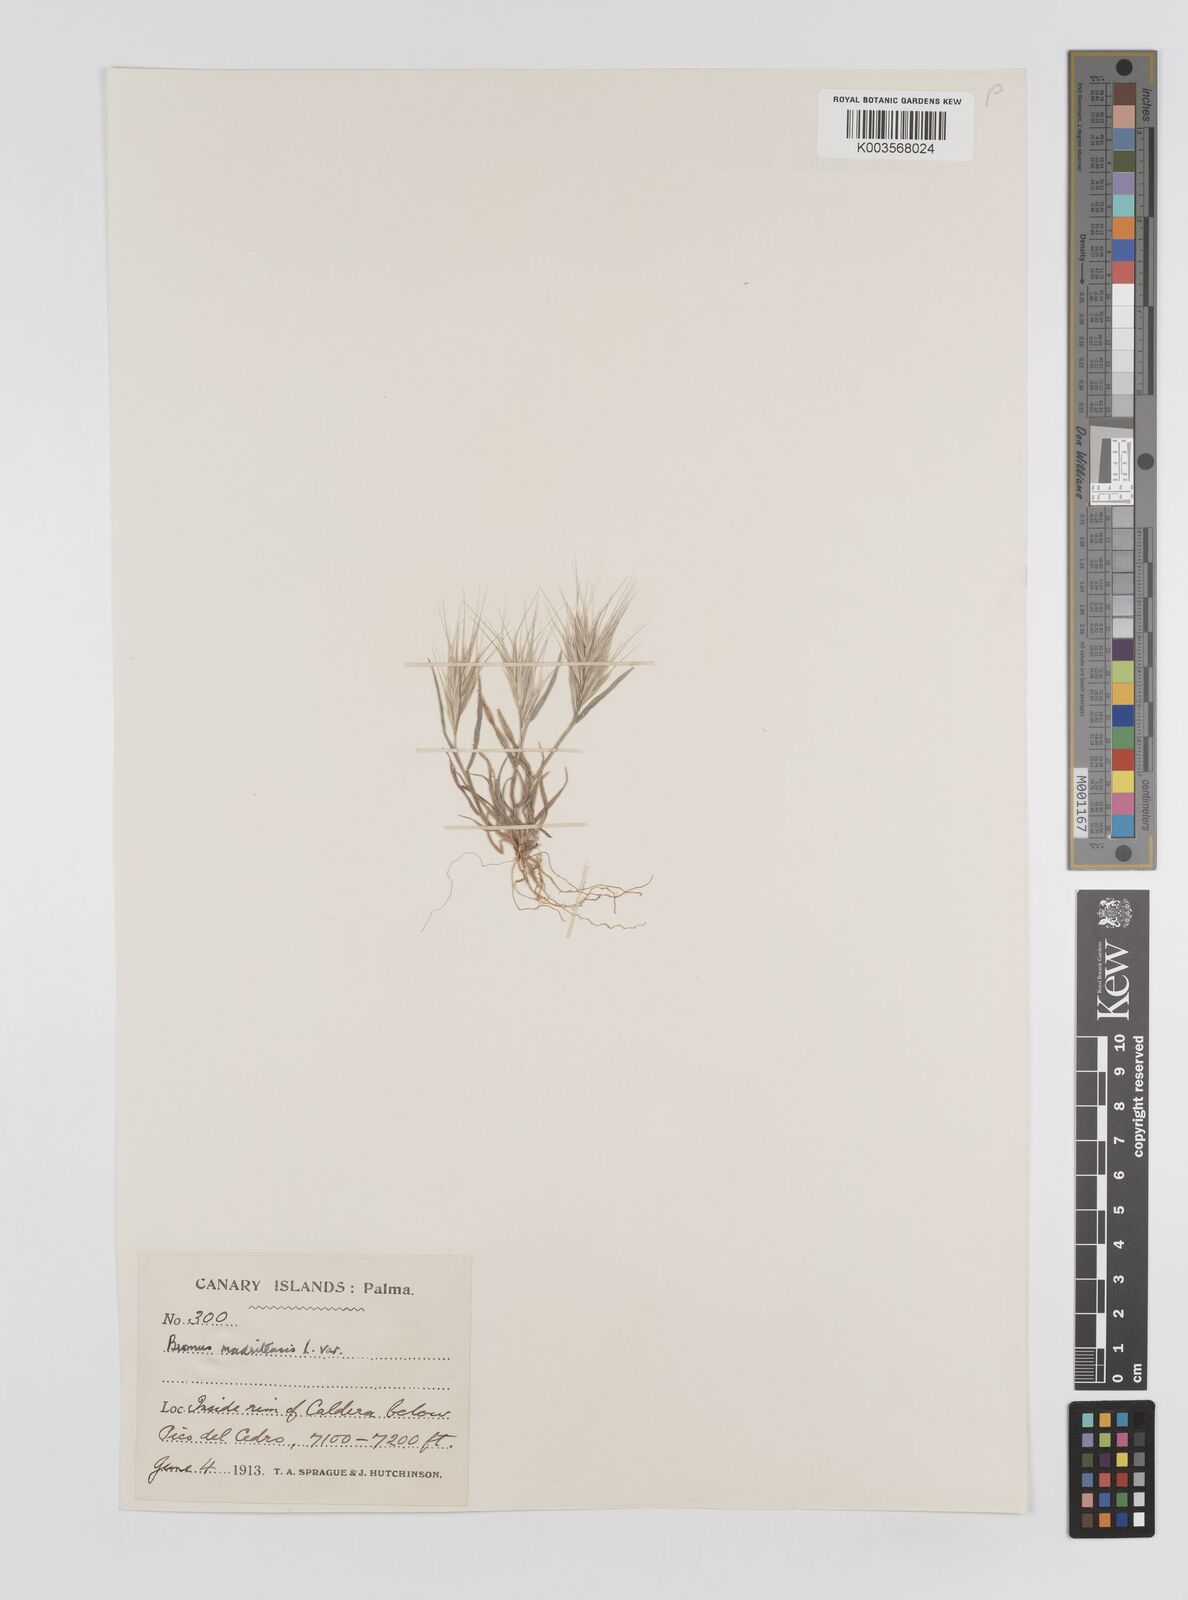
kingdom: Plantae
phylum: Tracheophyta
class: Liliopsida
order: Poales
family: Poaceae
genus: Bromus
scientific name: Bromus
